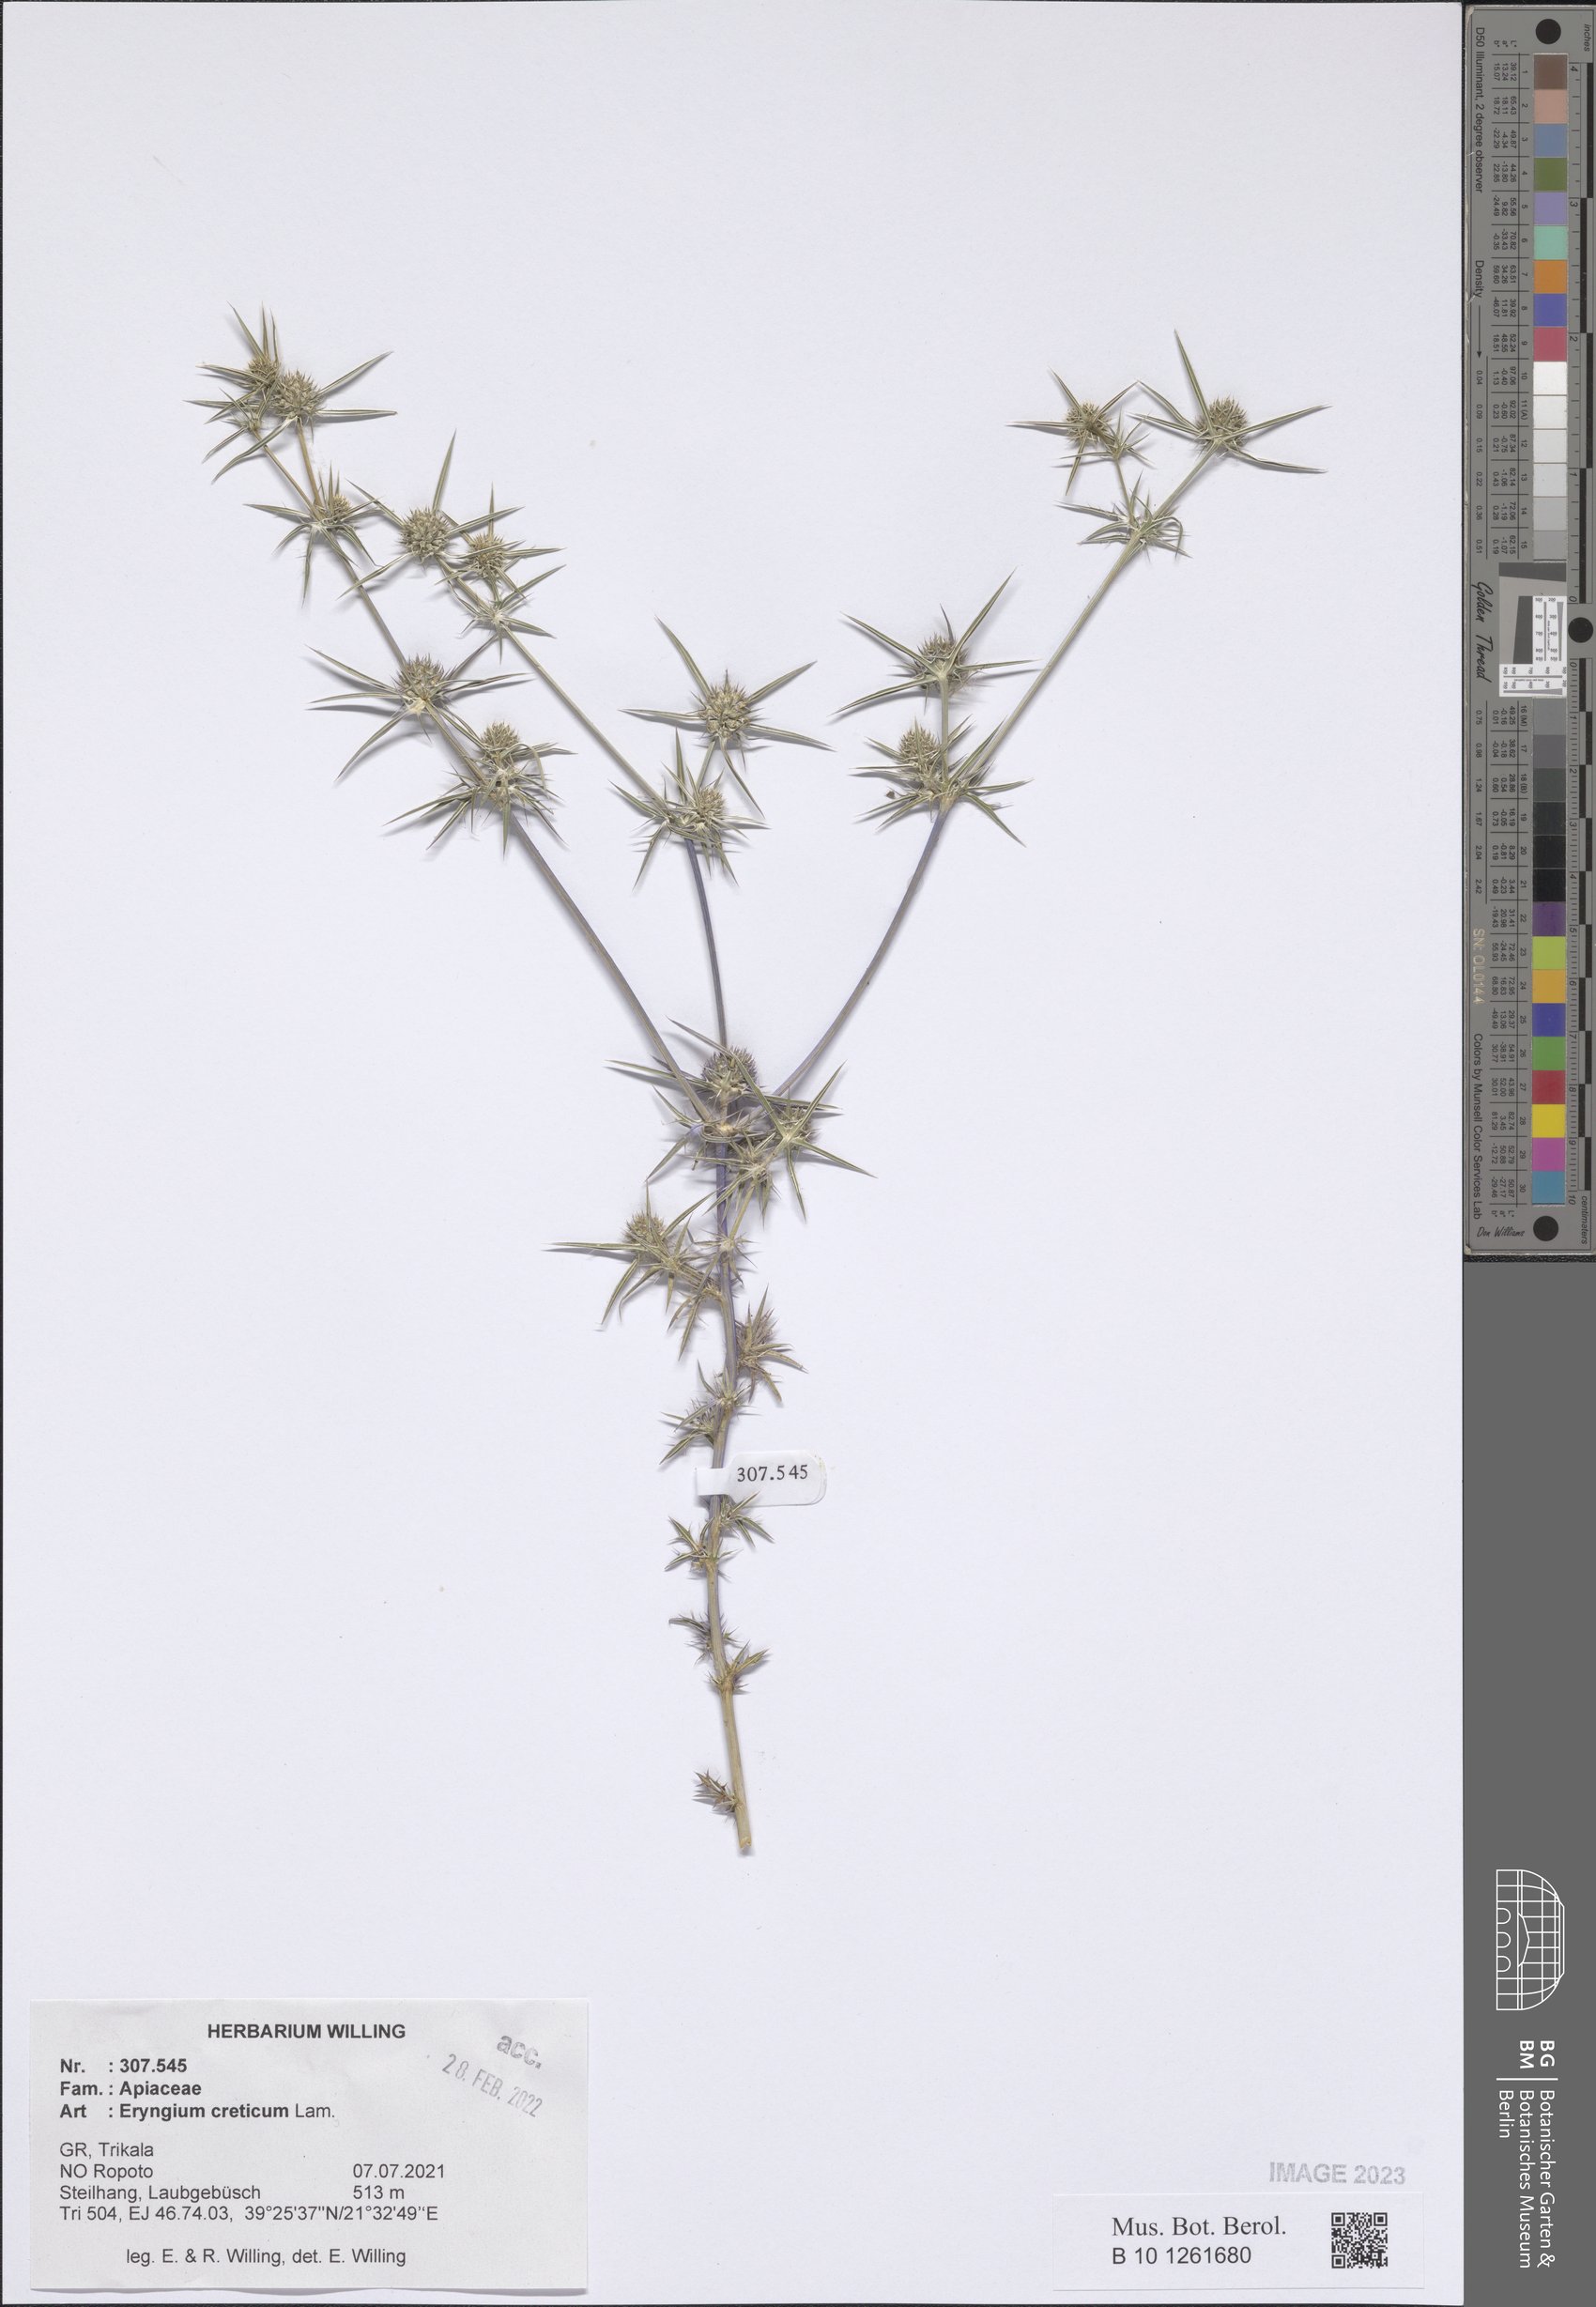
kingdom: Plantae
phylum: Tracheophyta
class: Magnoliopsida
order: Apiales
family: Apiaceae
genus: Eryngium
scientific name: Eryngium creticum
